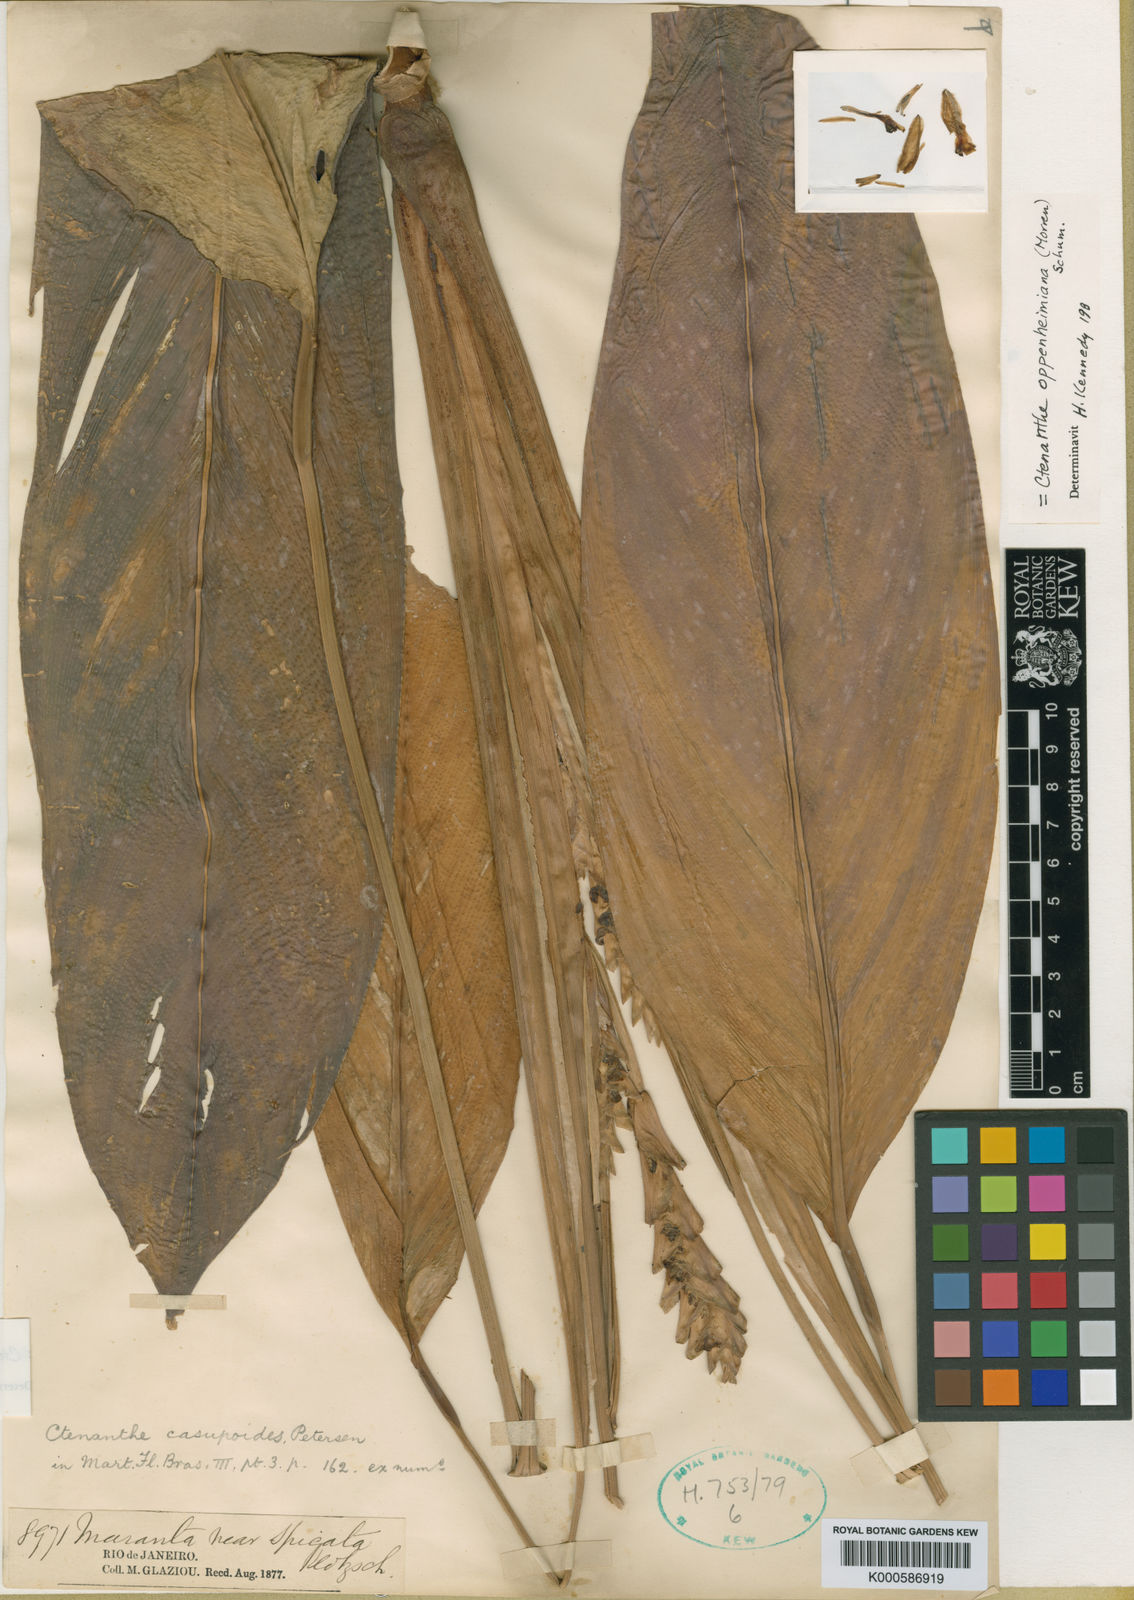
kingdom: Plantae
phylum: Tracheophyta
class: Liliopsida
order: Zingiberales
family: Marantaceae
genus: Ctenanthe
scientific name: Ctenanthe oppenheimiana
